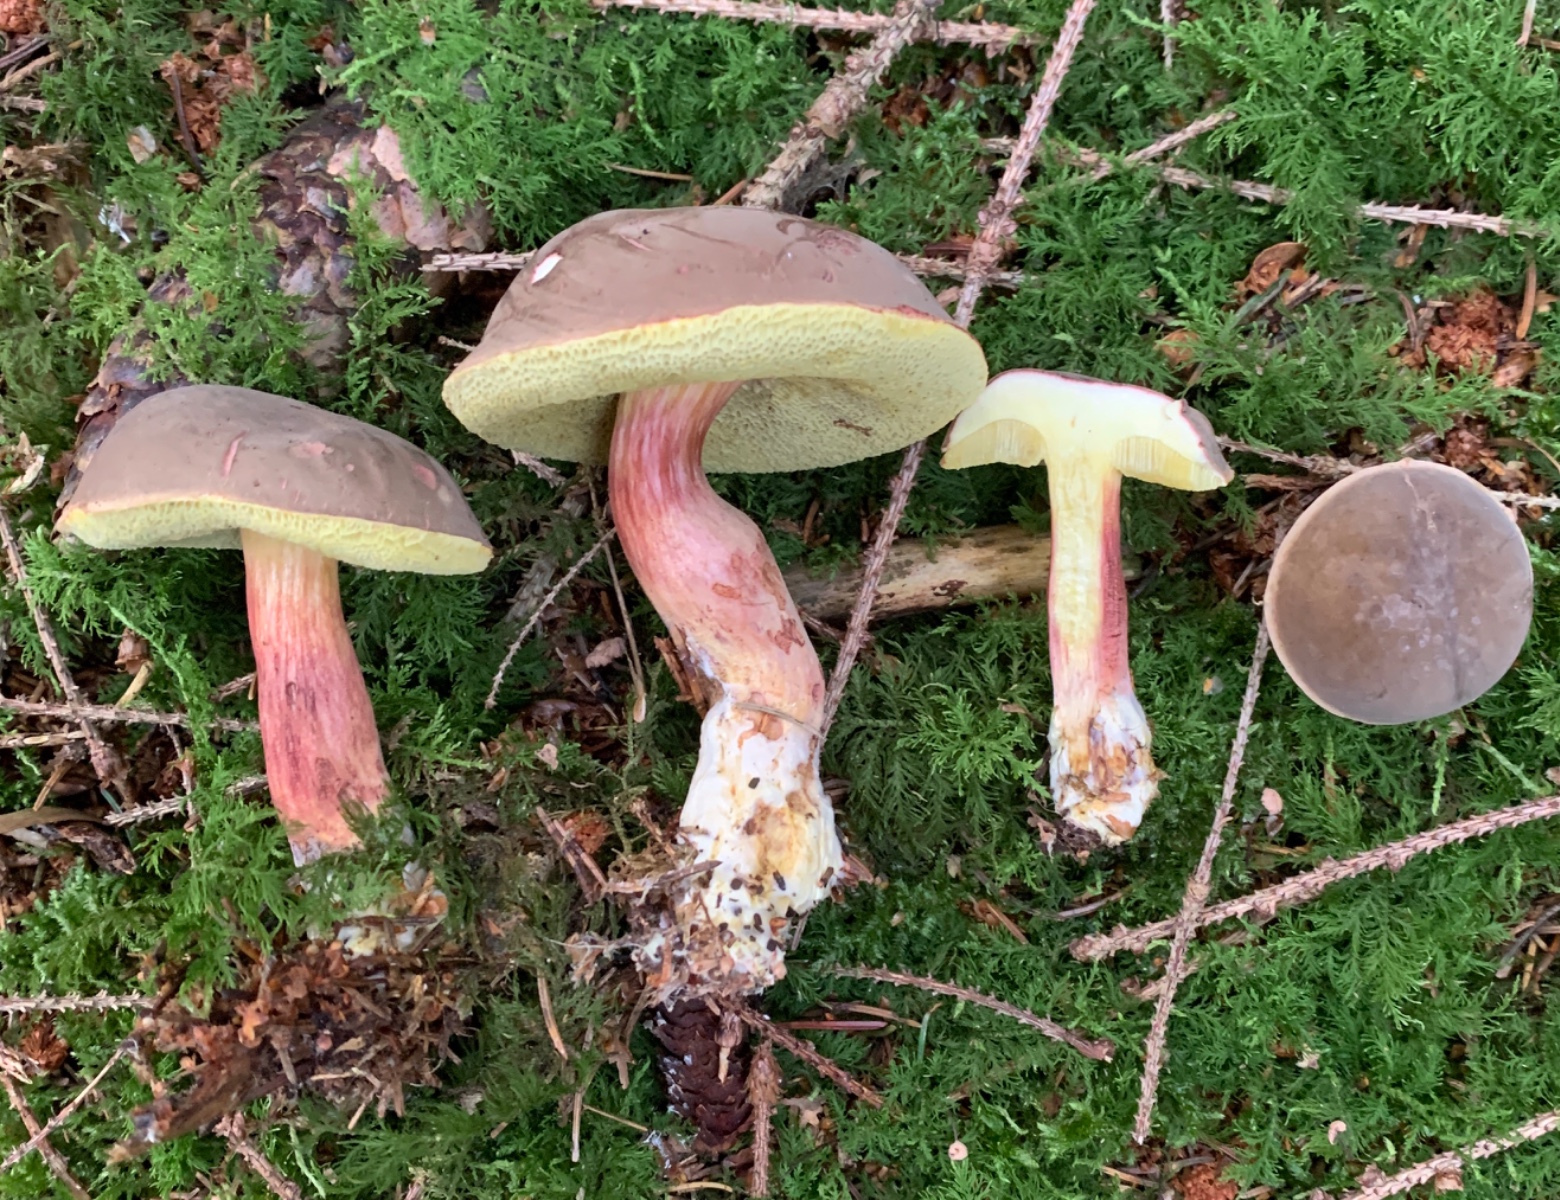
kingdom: Fungi
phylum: Basidiomycota
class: Agaricomycetes
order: Boletales
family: Boletaceae
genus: Xerocomellus
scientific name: Xerocomellus pruinatus
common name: dugget rørhat
